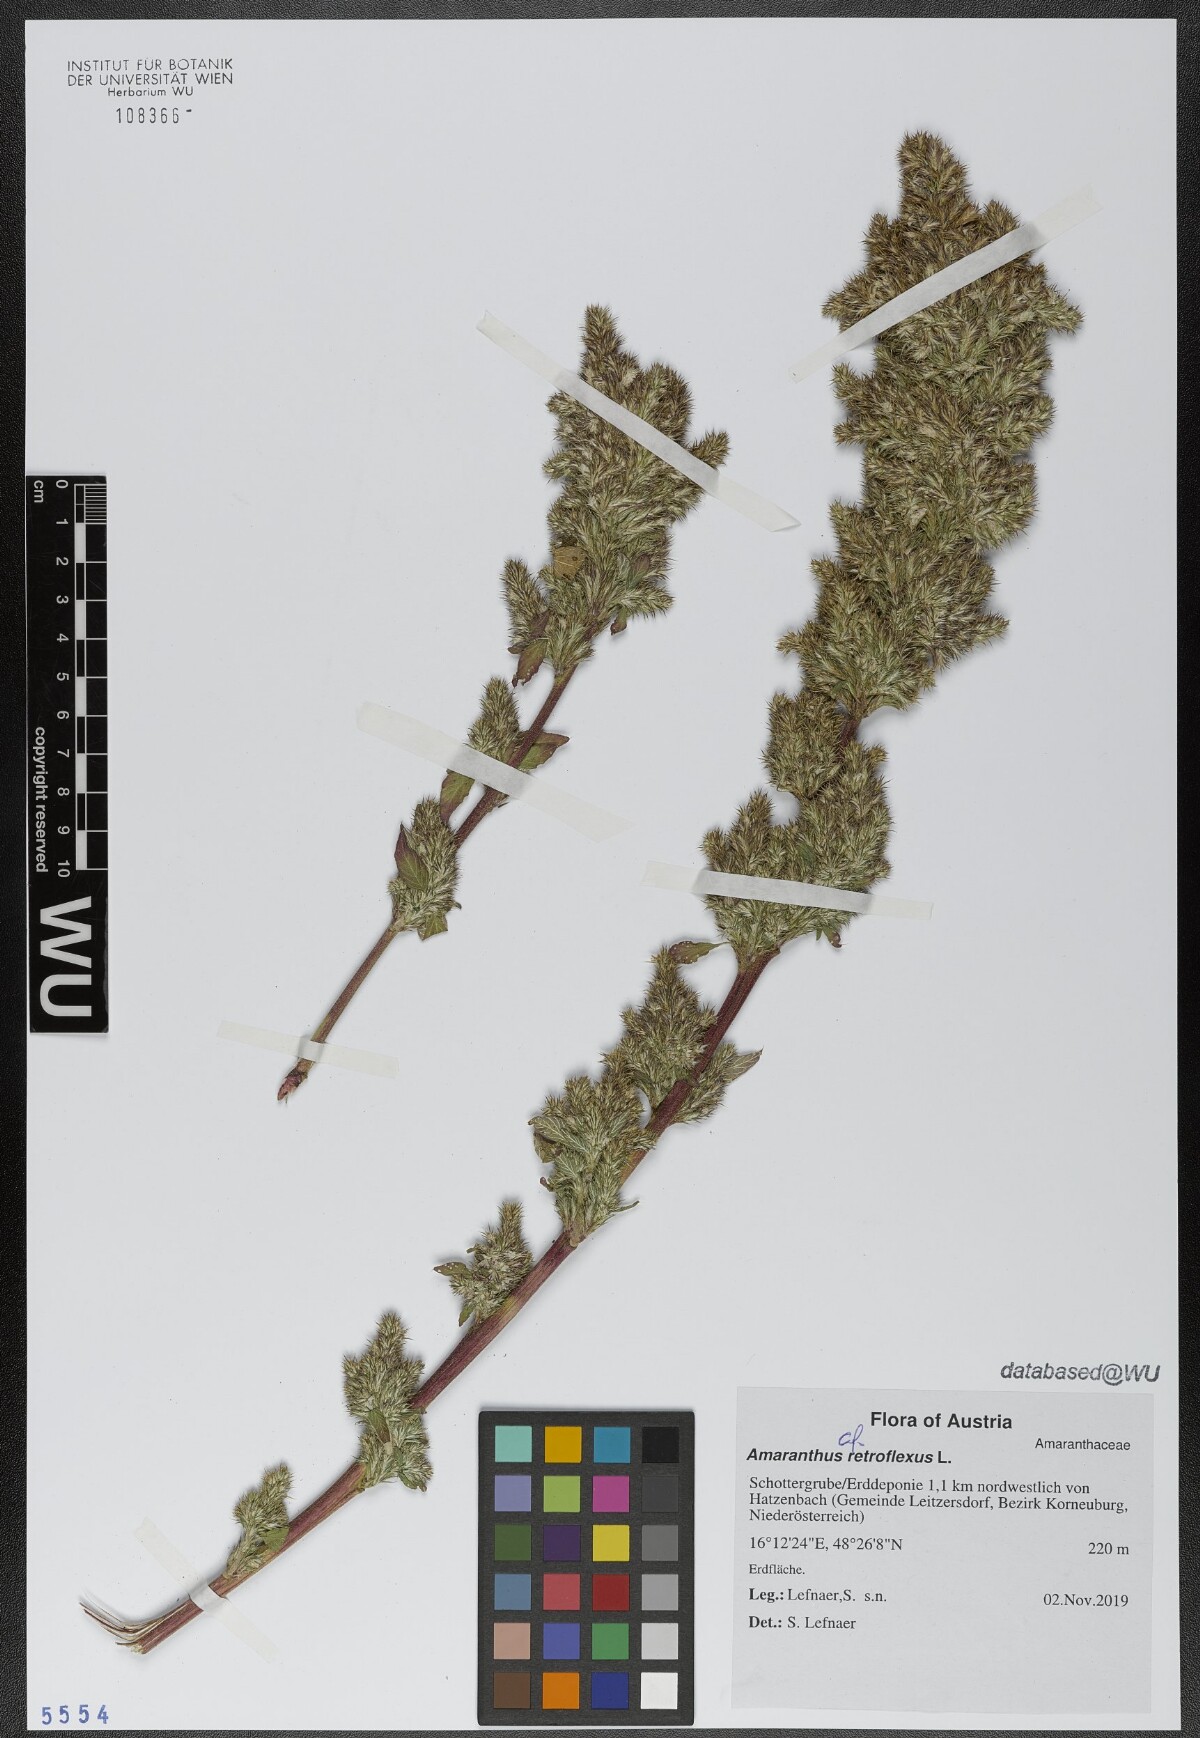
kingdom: Plantae
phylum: Tracheophyta
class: Magnoliopsida
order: Caryophyllales
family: Amaranthaceae
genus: Amaranthus
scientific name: Amaranthus retroflexus
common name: Redroot amaranth
